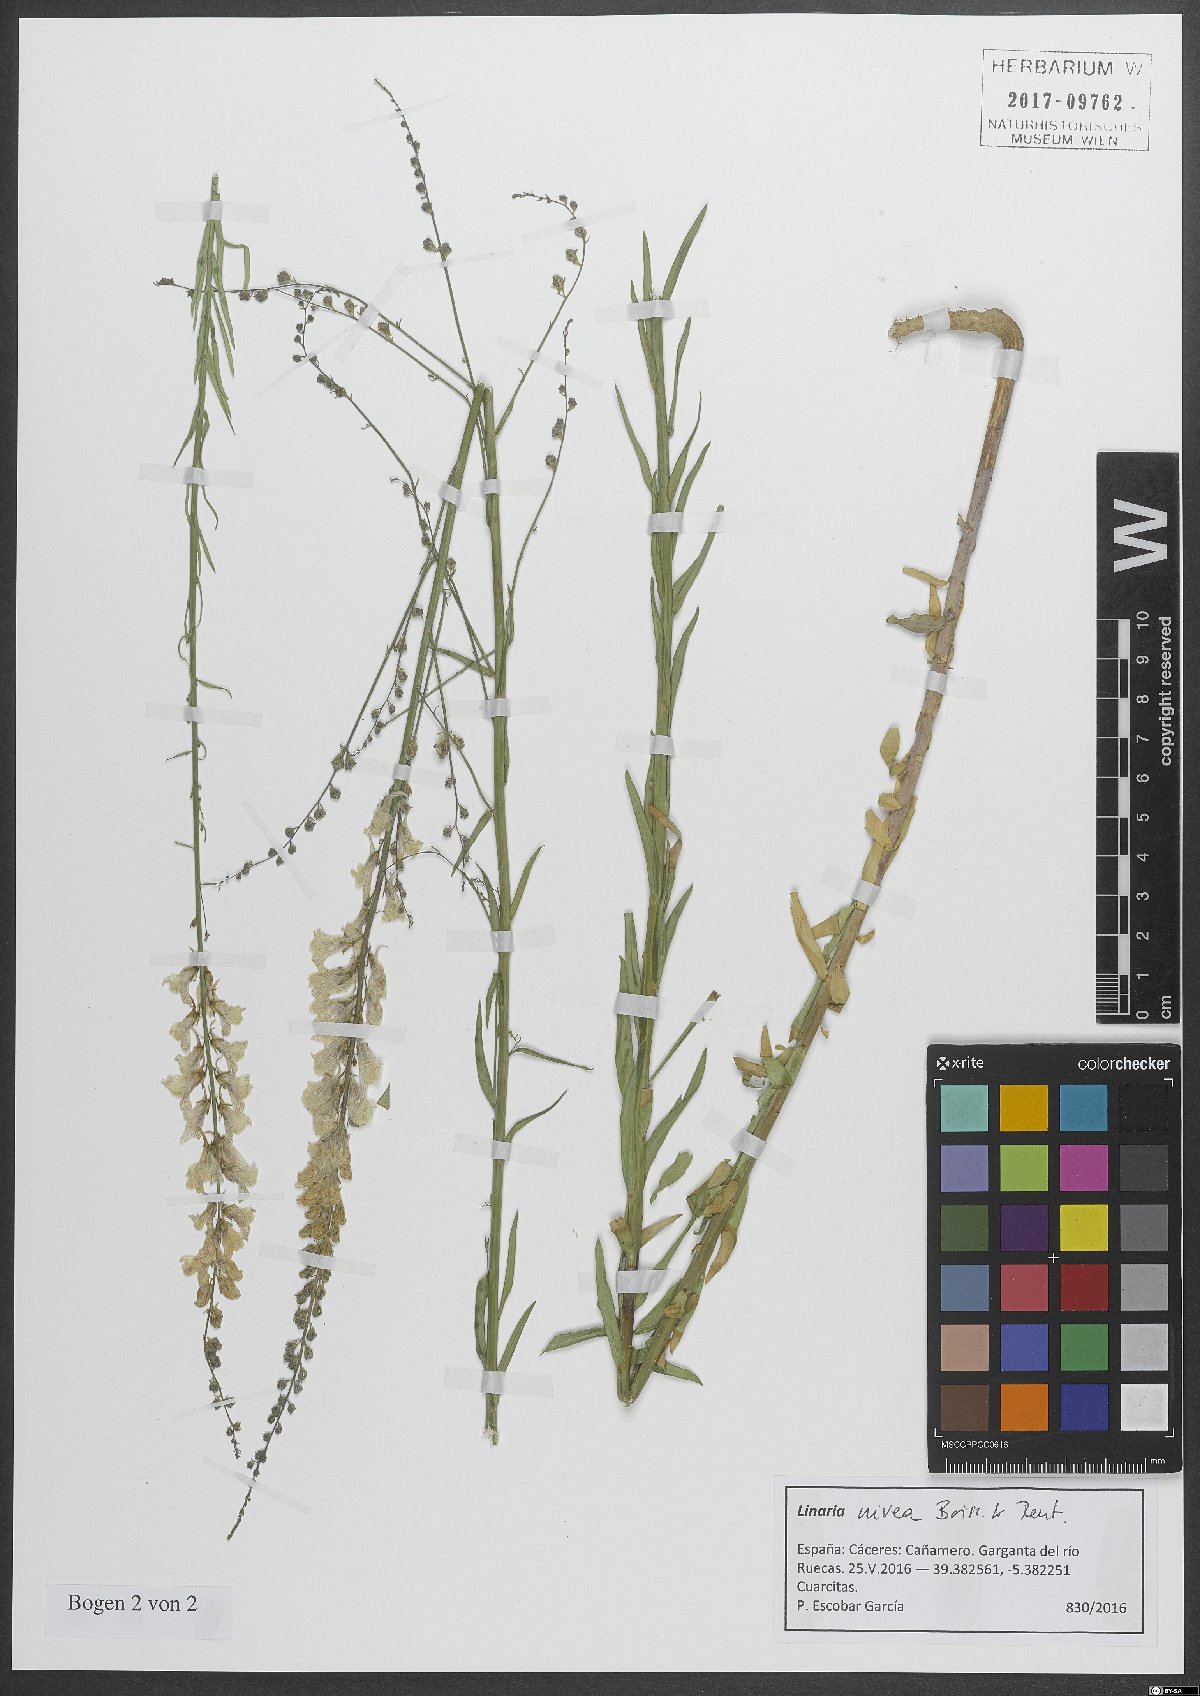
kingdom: Plantae
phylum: Tracheophyta
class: Magnoliopsida
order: Lamiales
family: Plantaginaceae
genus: Linaria
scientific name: Linaria nivea
